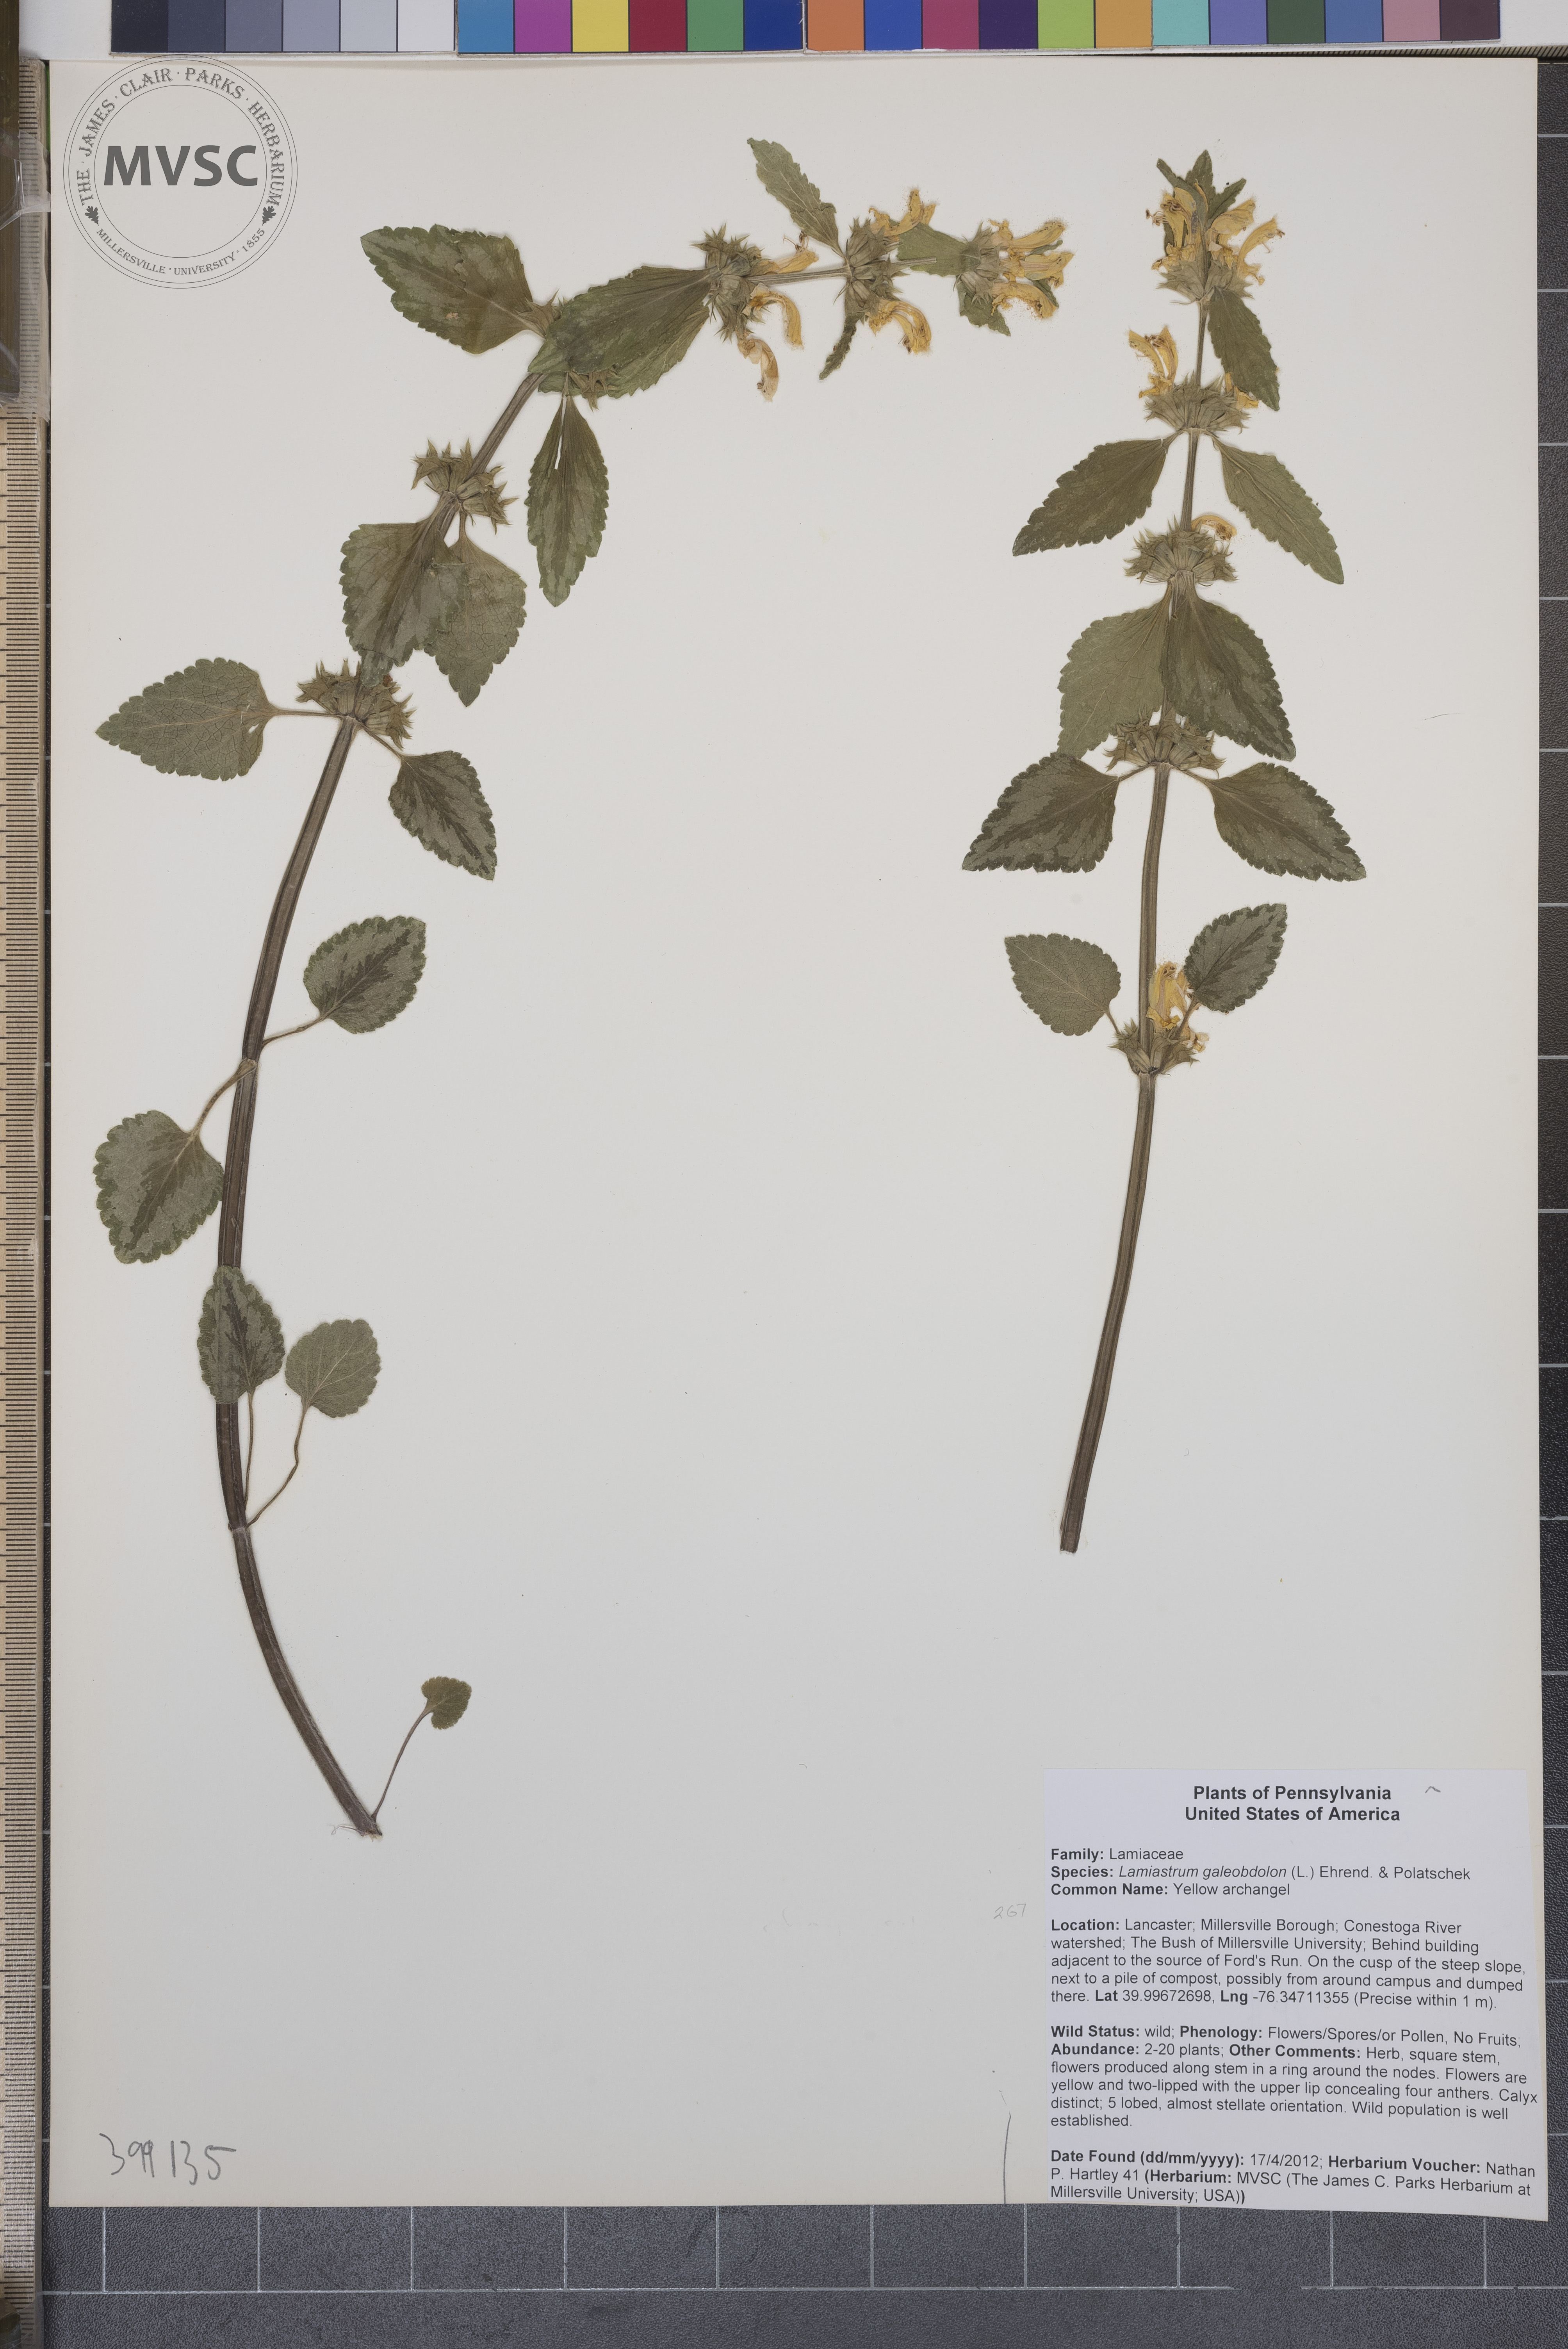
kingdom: Plantae
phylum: Tracheophyta
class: Magnoliopsida
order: Lamiales
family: Lamiaceae
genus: Lamium
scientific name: Lamium galeobdolon
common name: Yellow archangel
